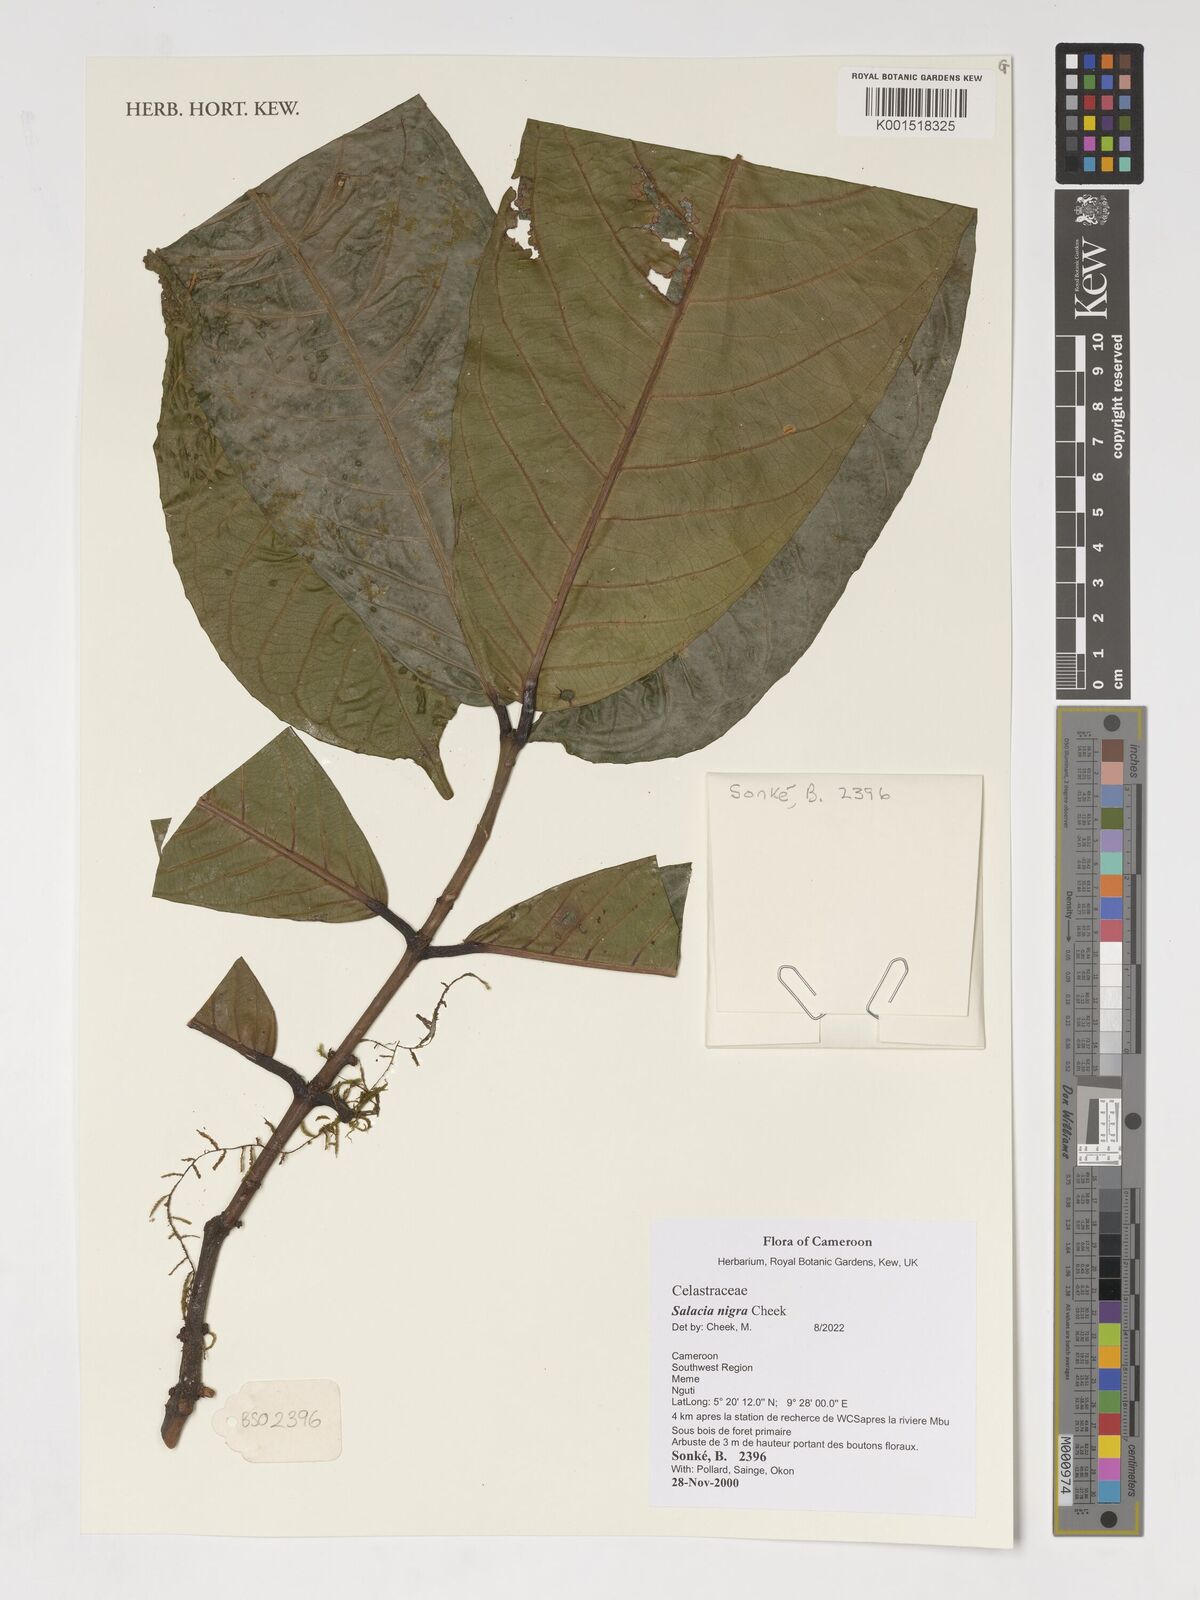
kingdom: Plantae
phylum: Tracheophyta
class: Magnoliopsida
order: Celastrales
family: Celastraceae
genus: Salacia
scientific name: Salacia nigra
